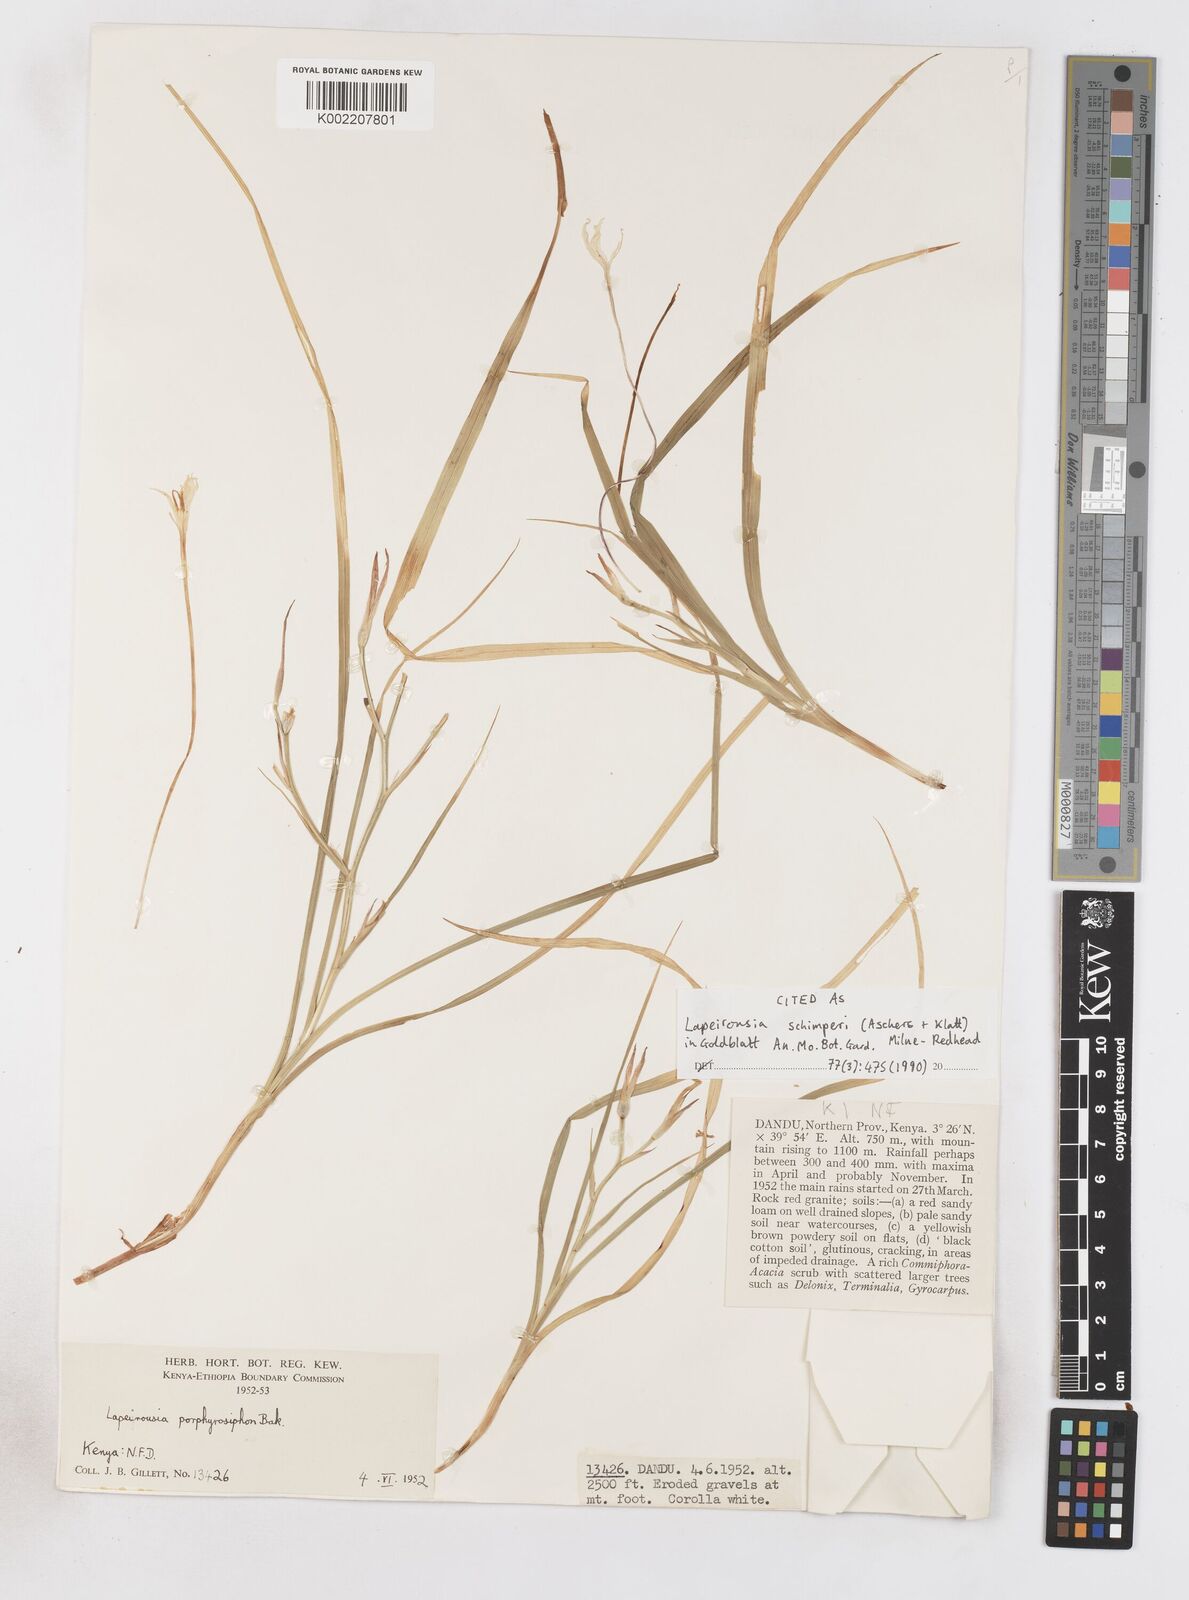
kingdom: Plantae
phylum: Tracheophyta
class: Liliopsida
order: Asparagales
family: Iridaceae
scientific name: Iridaceae
